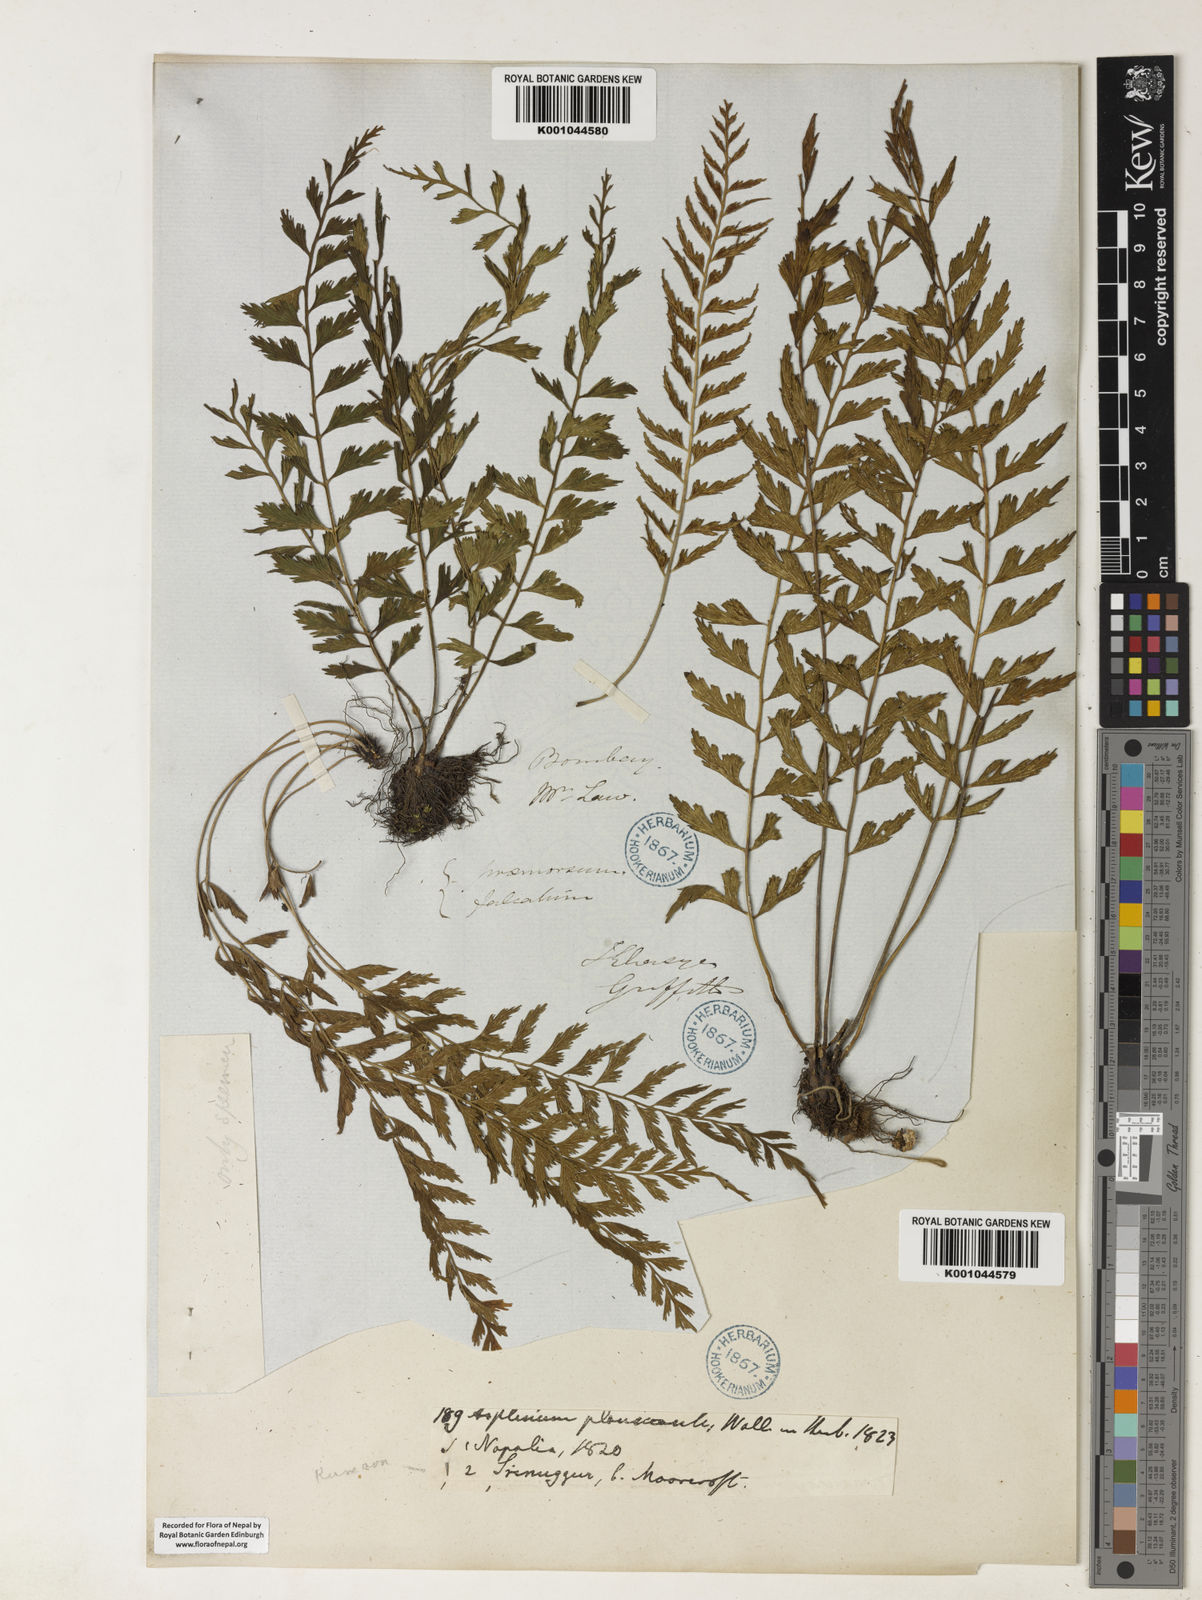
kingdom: Plantae
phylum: Tracheophyta
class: Polypodiopsida
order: Polypodiales
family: Aspleniaceae
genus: Asplenium
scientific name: Asplenium yoshinagae
